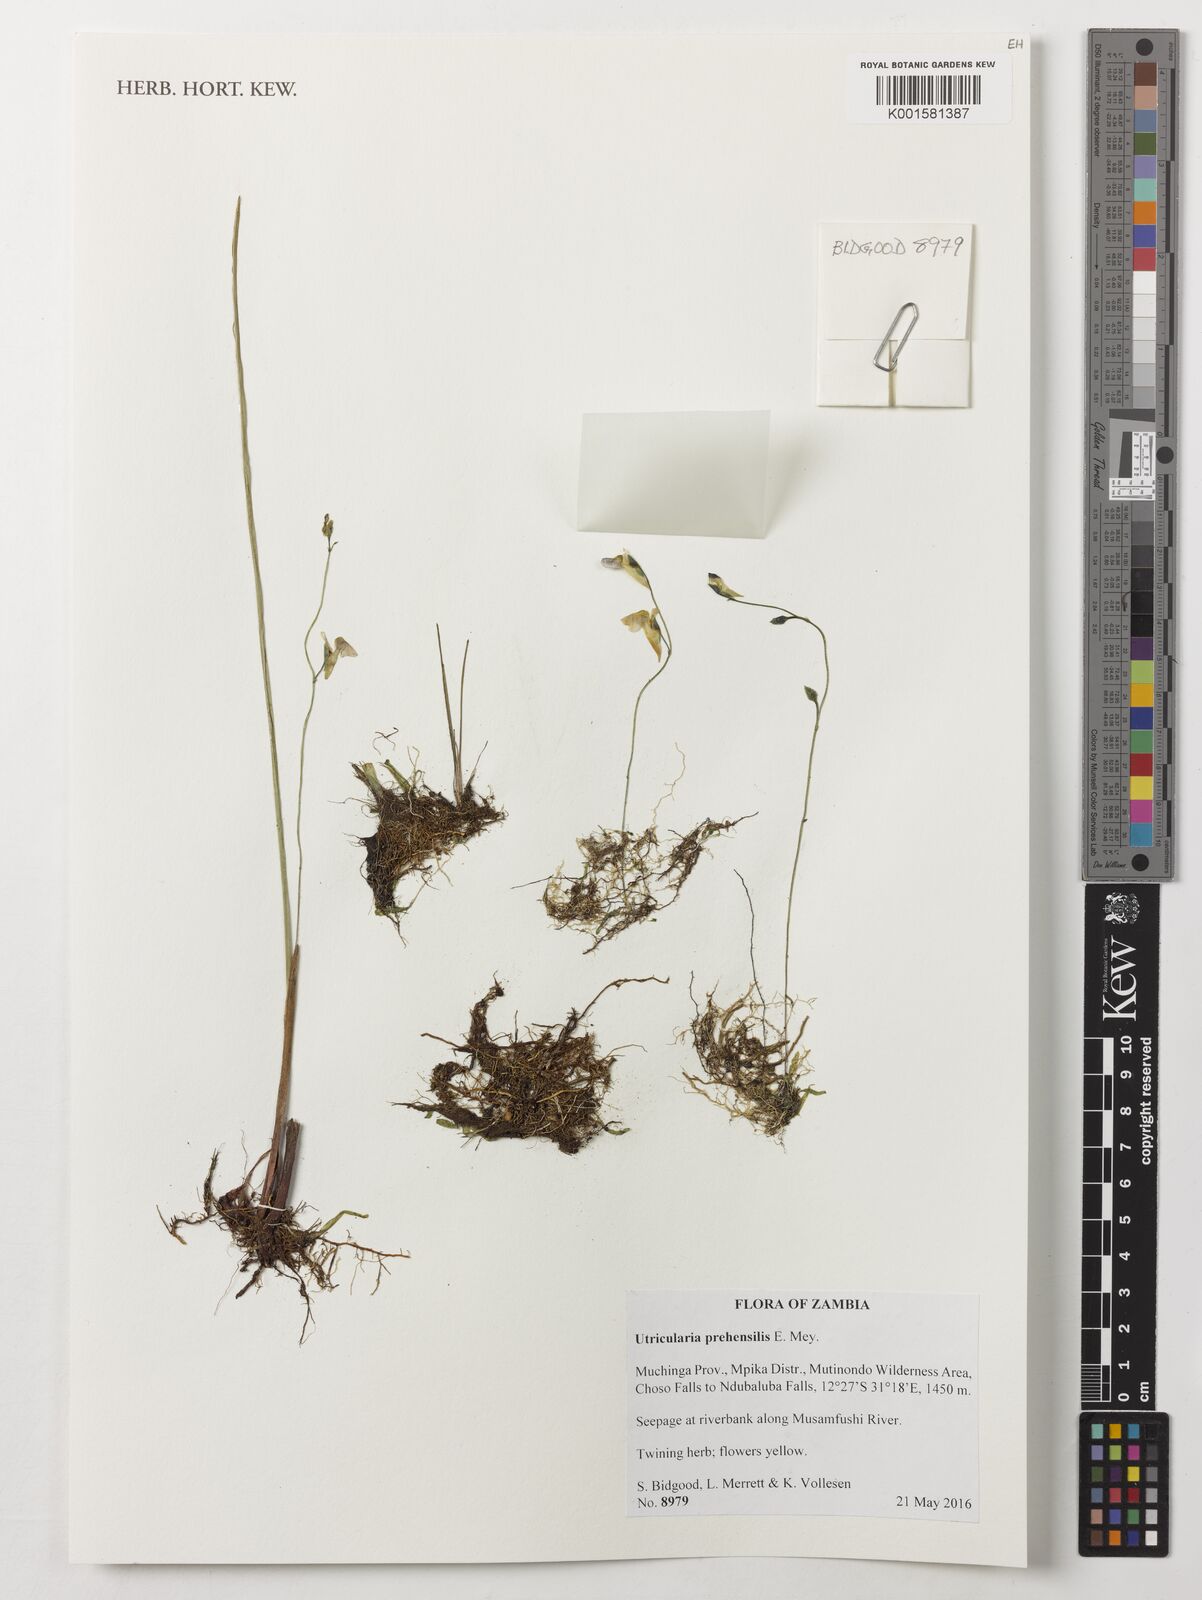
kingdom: Plantae
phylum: Tracheophyta
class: Magnoliopsida
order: Lamiales
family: Lentibulariaceae
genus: Utricularia
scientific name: Utricularia prehensilis
